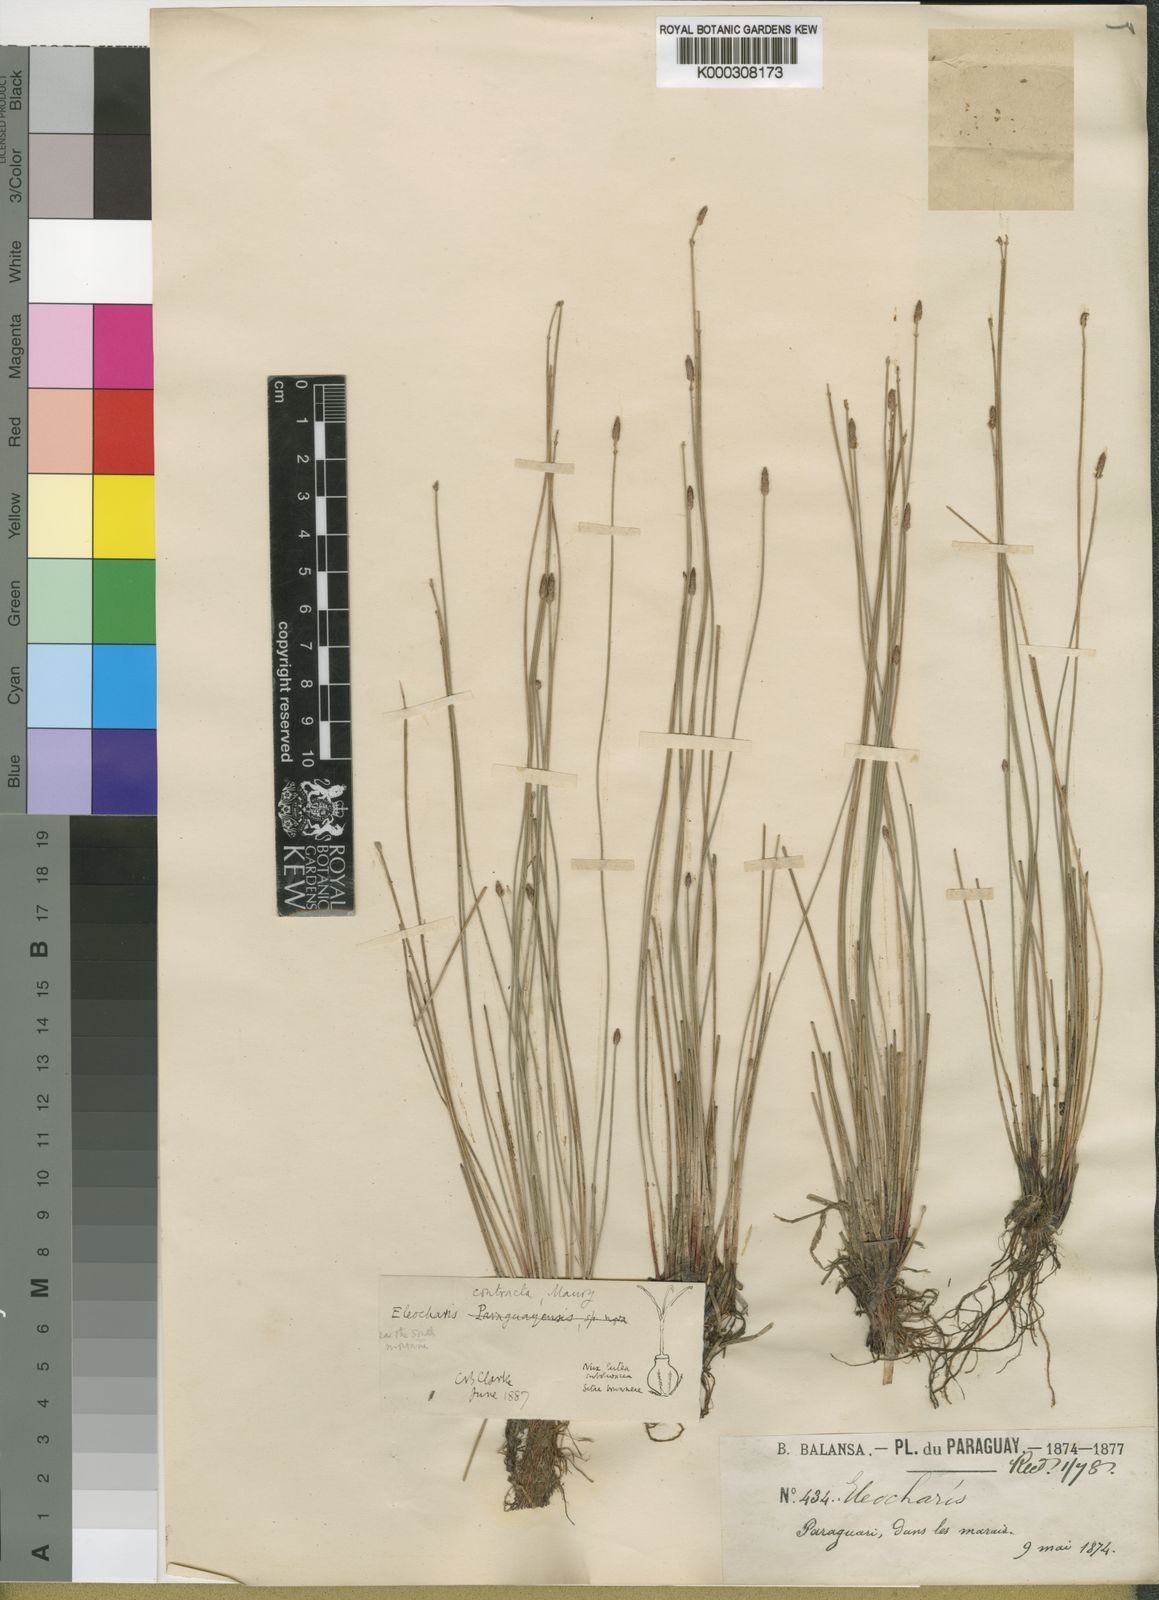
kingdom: Plantae
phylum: Tracheophyta
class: Liliopsida
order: Poales
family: Cyperaceae
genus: Eleocharis
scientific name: Eleocharis contracta
